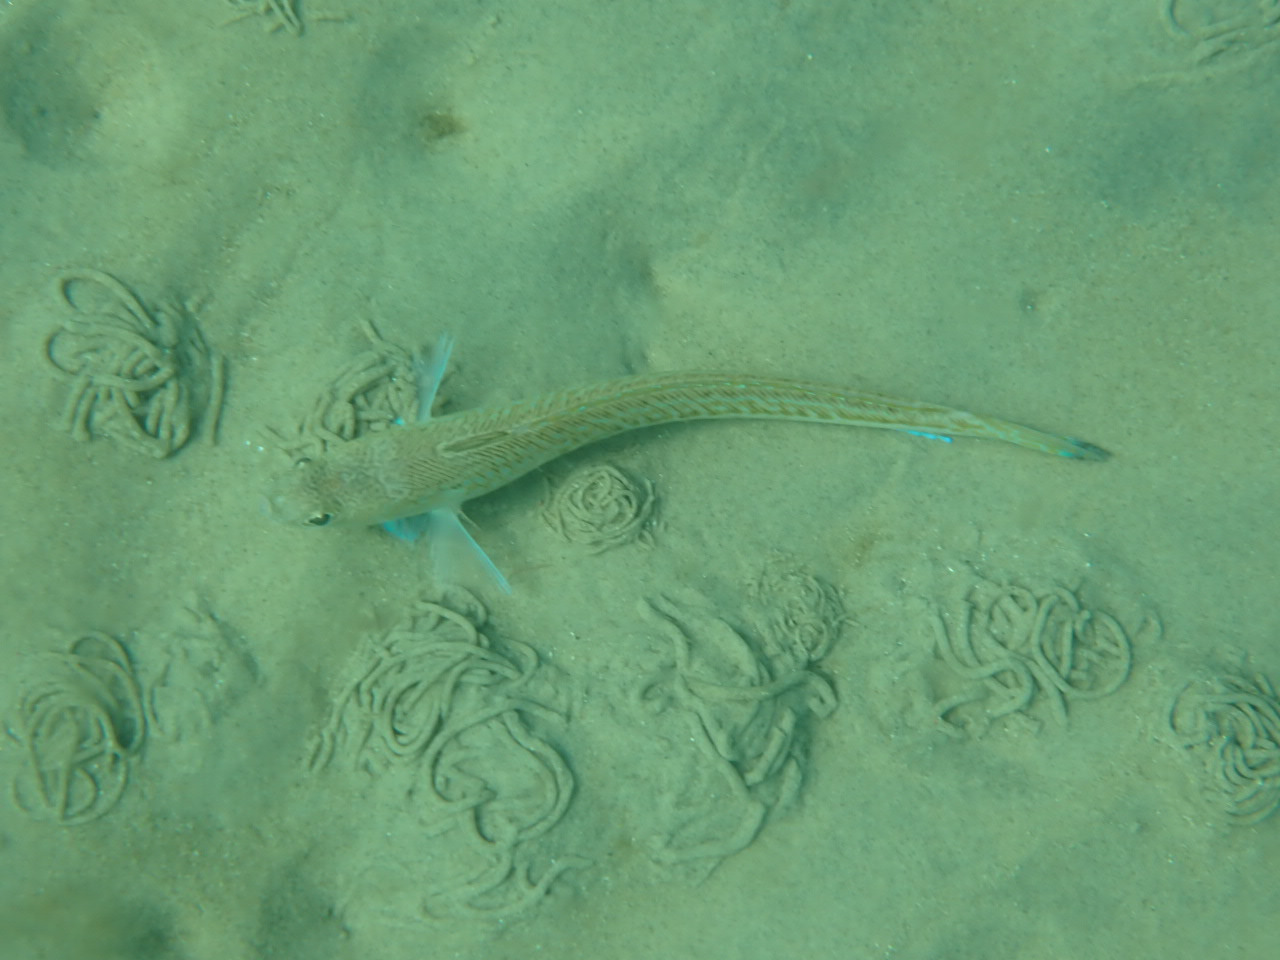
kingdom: Animalia
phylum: Chordata
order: Perciformes
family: Trachinidae
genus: Trachinus
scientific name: Trachinus draco
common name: Almindelig fjæsing
